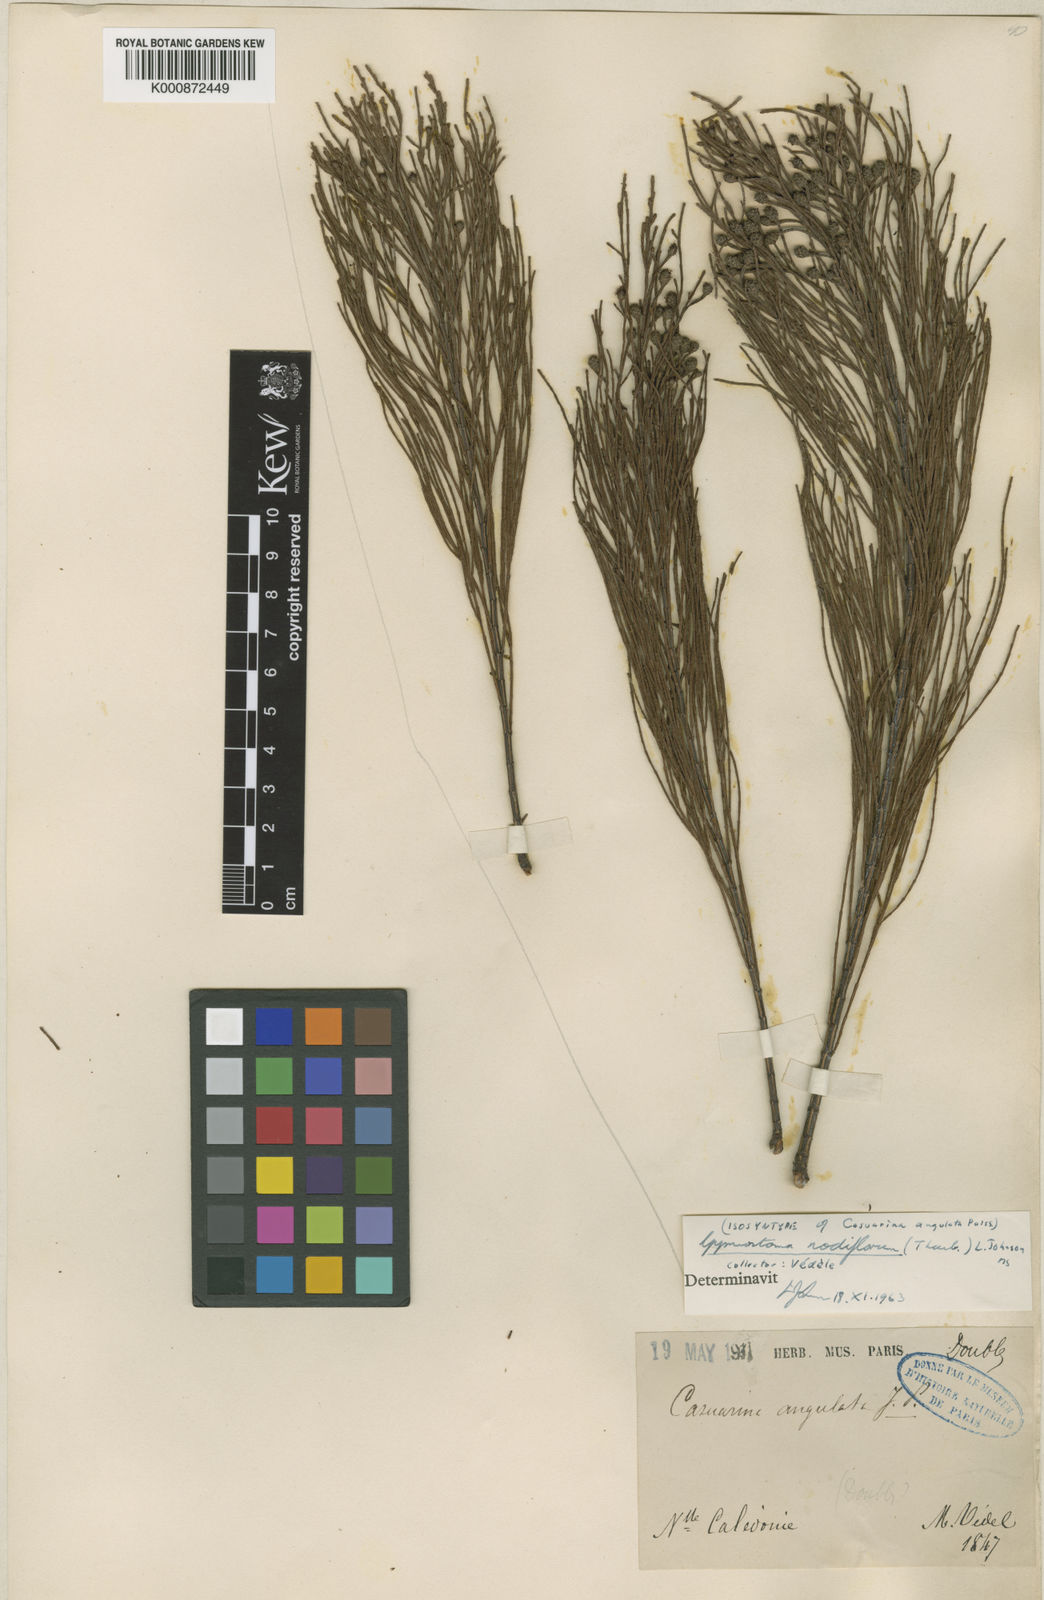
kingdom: Plantae
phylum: Tracheophyta
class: Magnoliopsida
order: Fagales
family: Casuarinaceae
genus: Gymnostoma
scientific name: Gymnostoma nodiflorum
